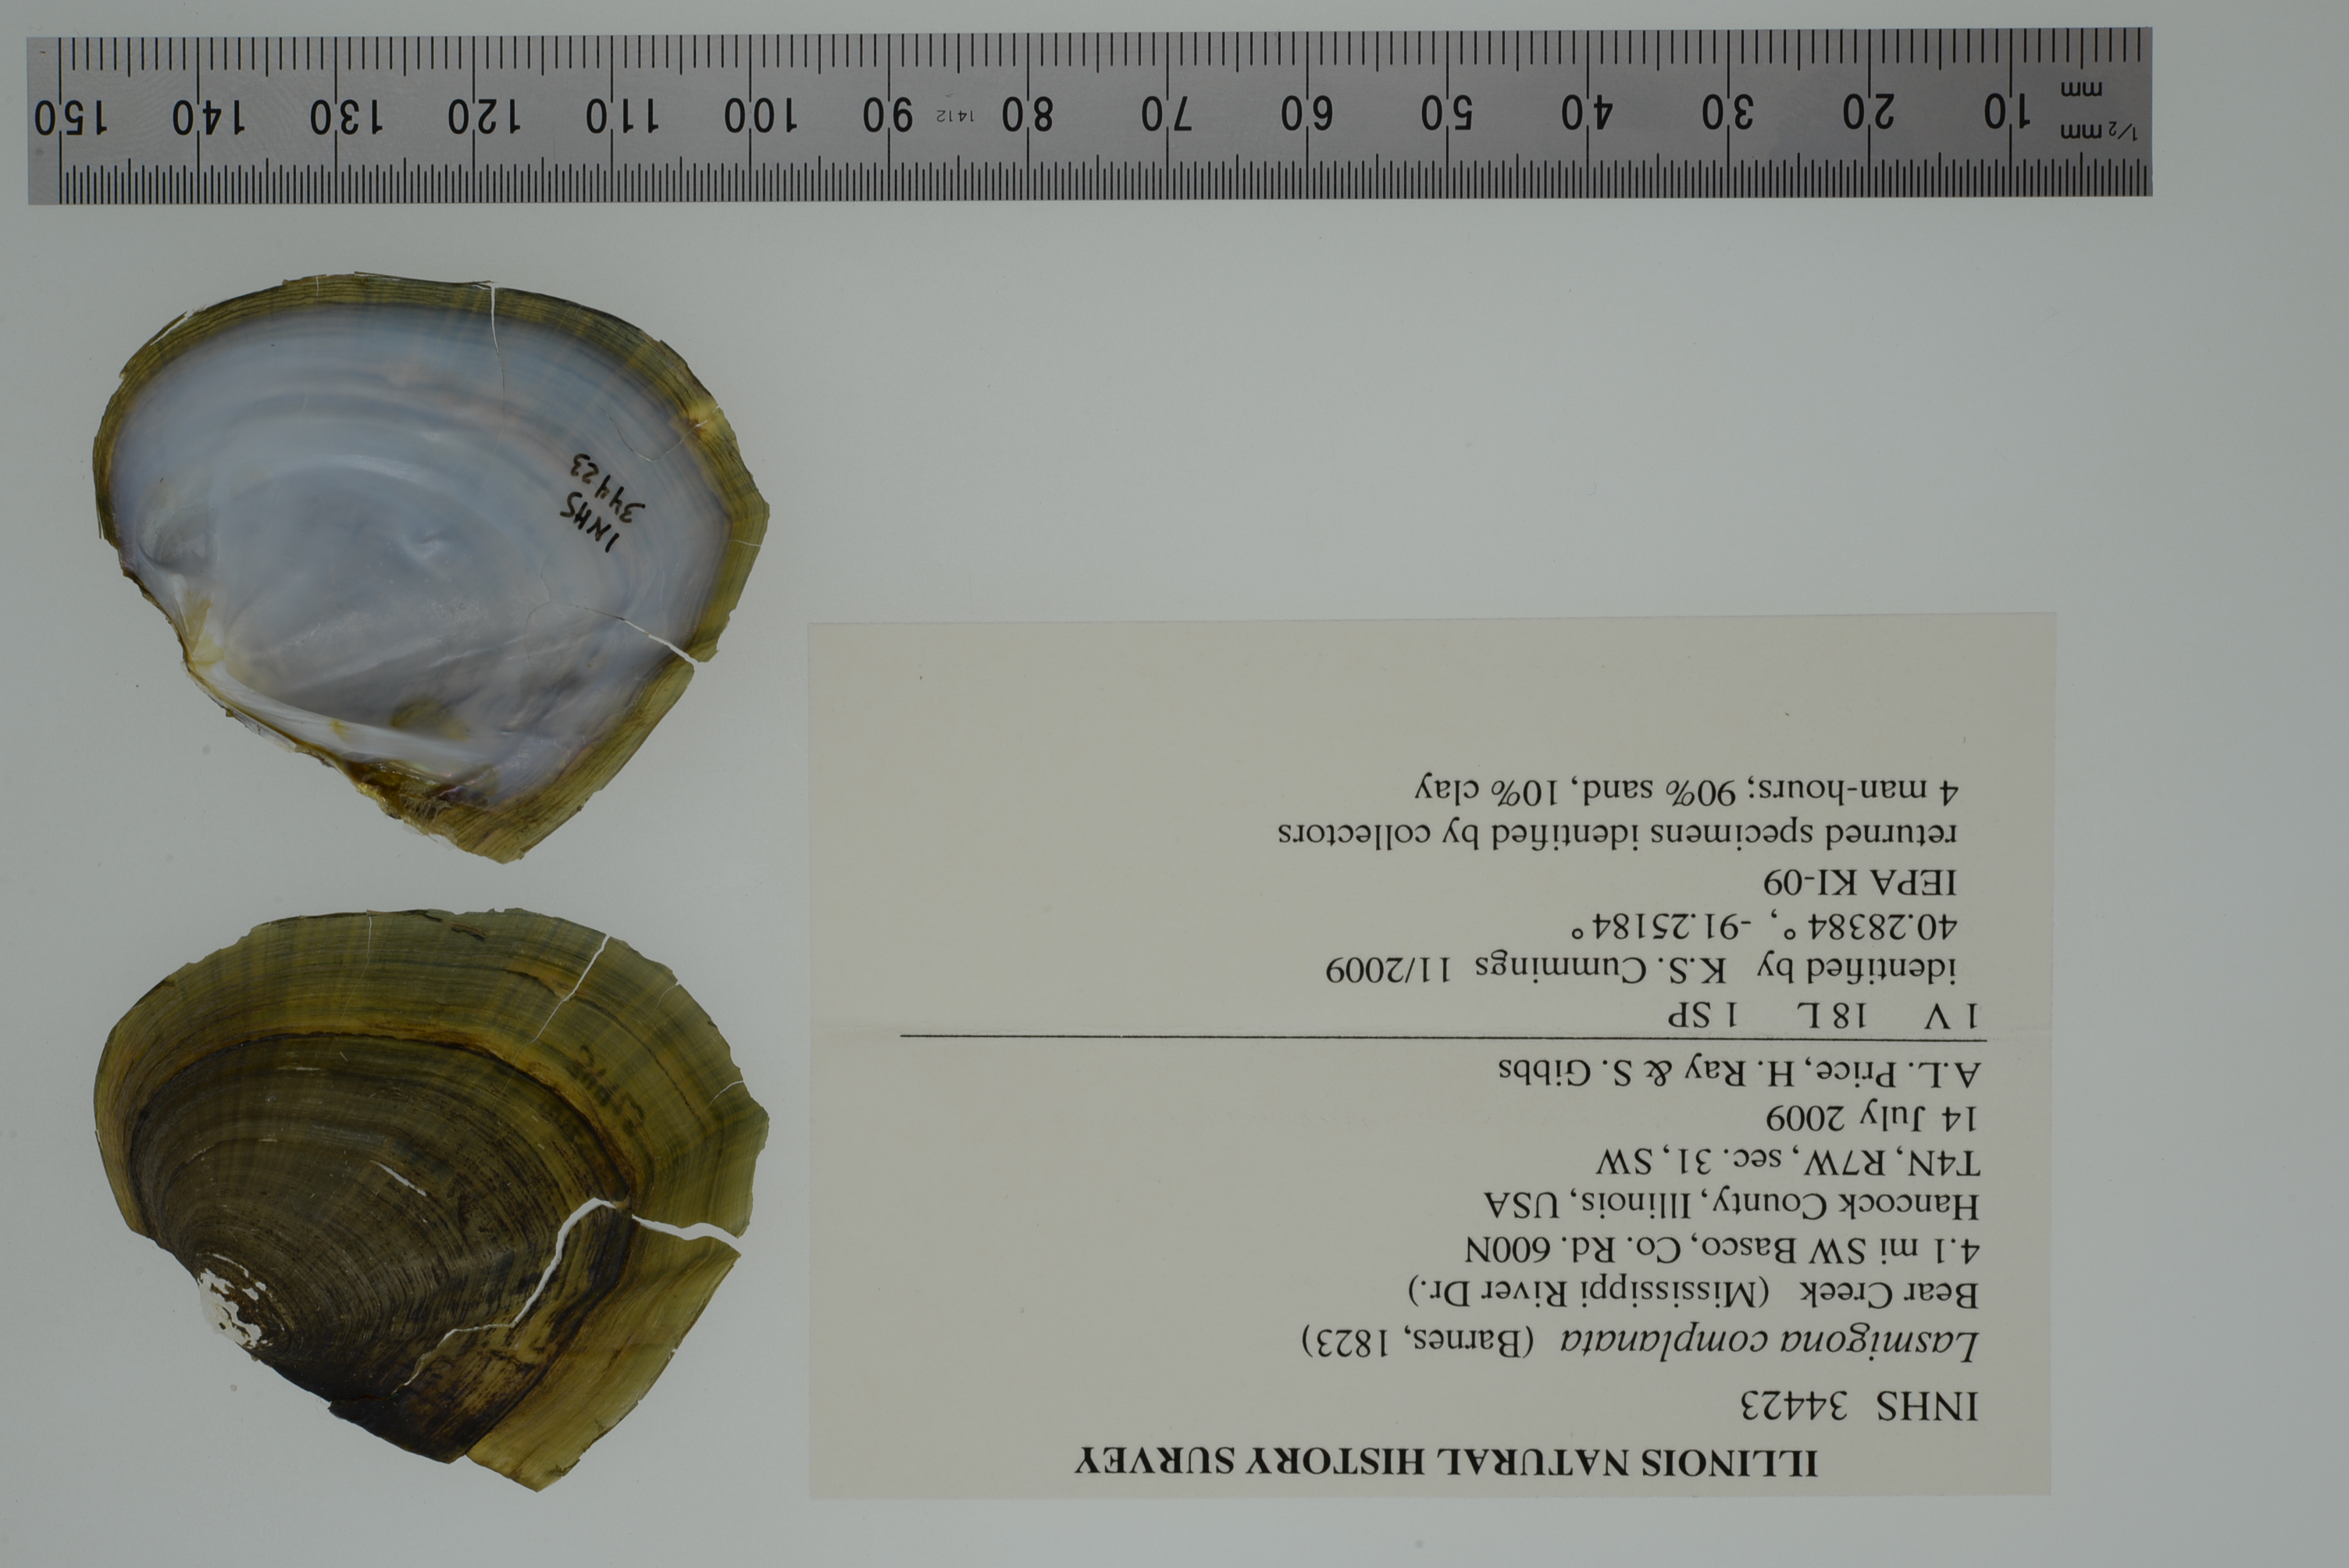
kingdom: Animalia
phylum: Mollusca
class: Bivalvia
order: Unionida
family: Unionidae
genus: Lasmigona
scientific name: Lasmigona complanata
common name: White heelsplitter
